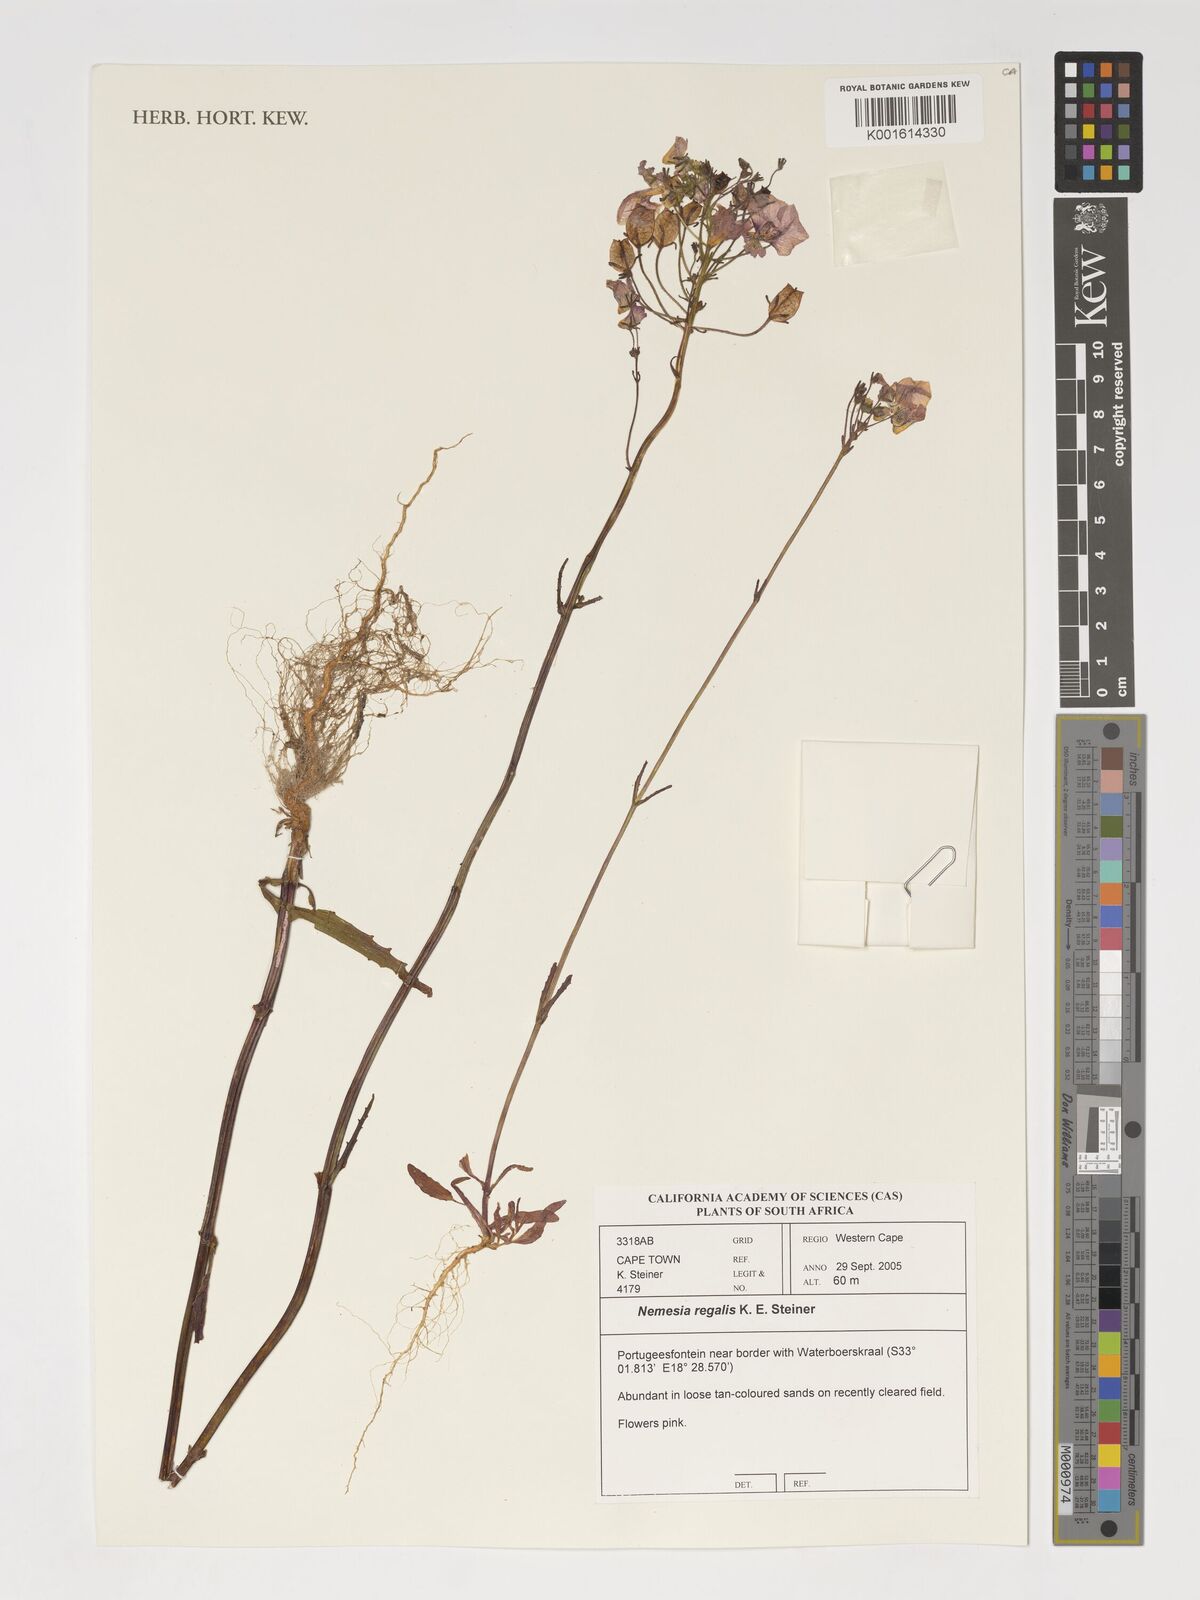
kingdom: Plantae
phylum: Tracheophyta
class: Magnoliopsida
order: Lamiales
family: Scrophulariaceae
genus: Nemesia
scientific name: Nemesia
